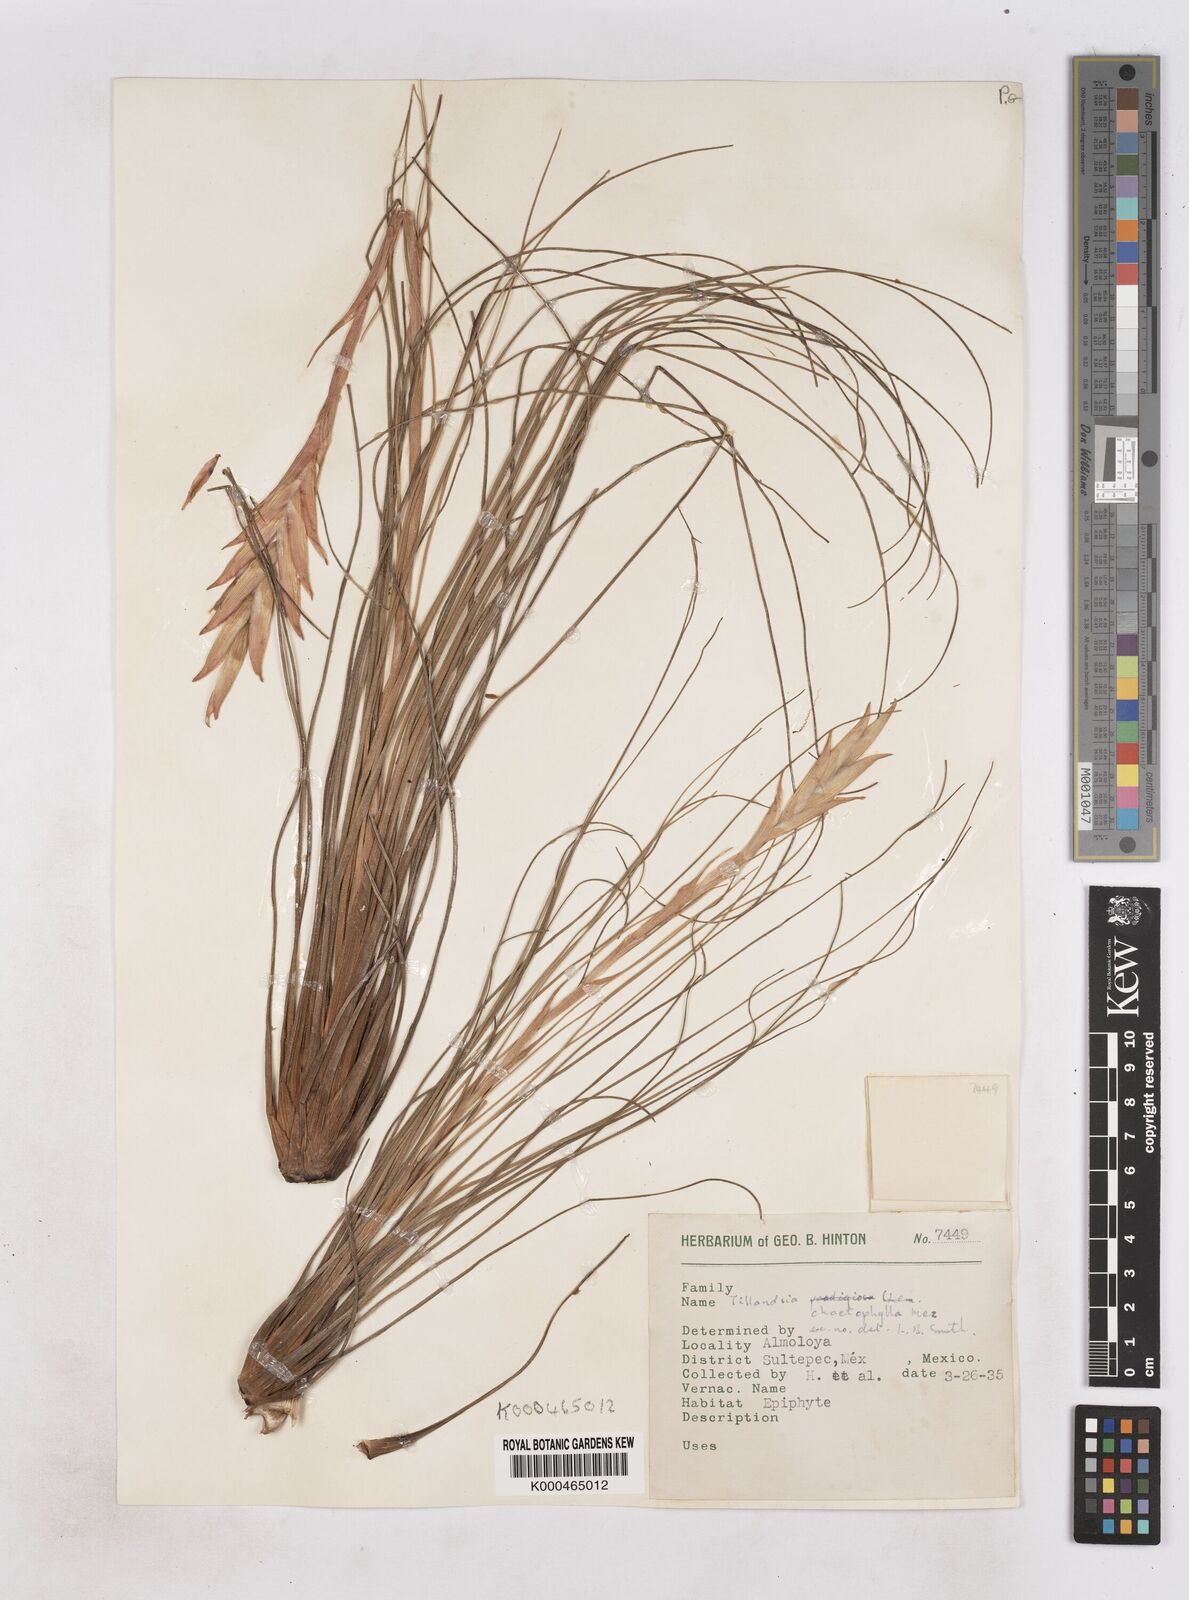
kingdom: Plantae
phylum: Tracheophyta
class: Liliopsida
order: Poales
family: Bromeliaceae
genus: Tillandsia
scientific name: Tillandsia chaetophylla
